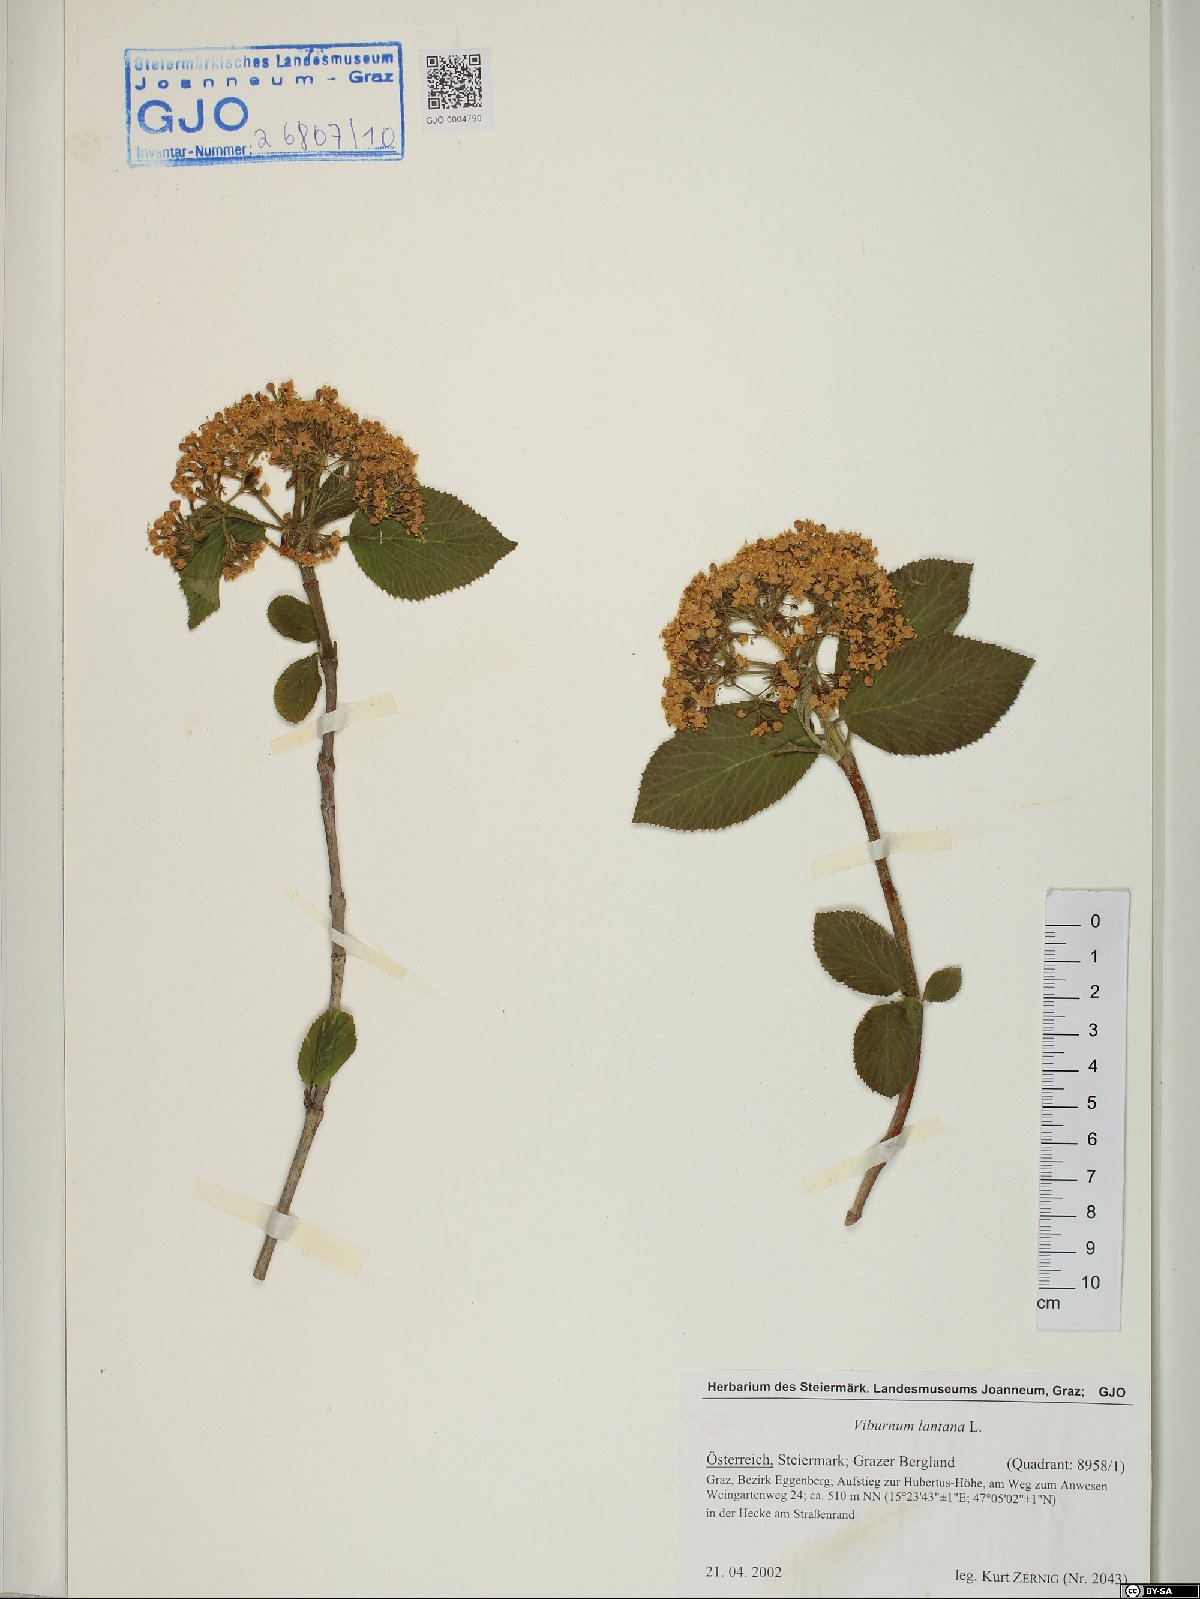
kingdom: Plantae
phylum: Tracheophyta
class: Magnoliopsida
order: Dipsacales
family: Viburnaceae
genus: Viburnum
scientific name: Viburnum lantana
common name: Wayfaring tree
